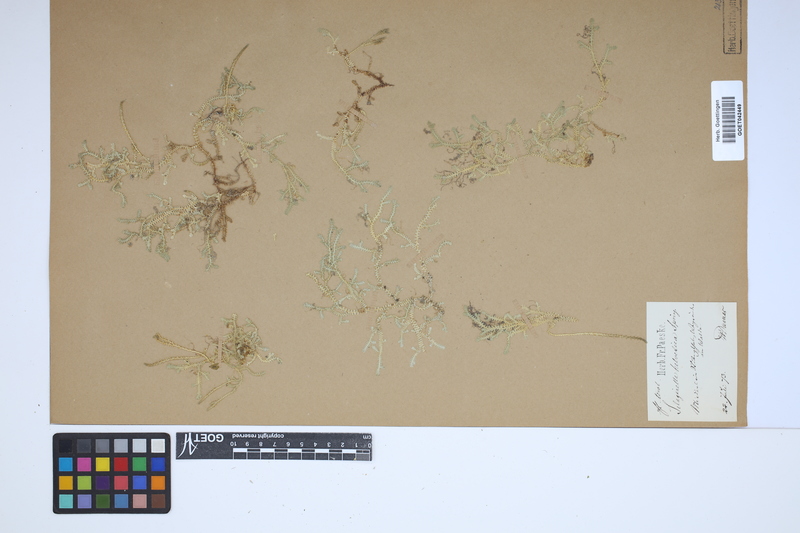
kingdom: Plantae
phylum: Tracheophyta
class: Lycopodiopsida
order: Selaginellales
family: Selaginellaceae
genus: Selaginella
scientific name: Selaginella helvetica
